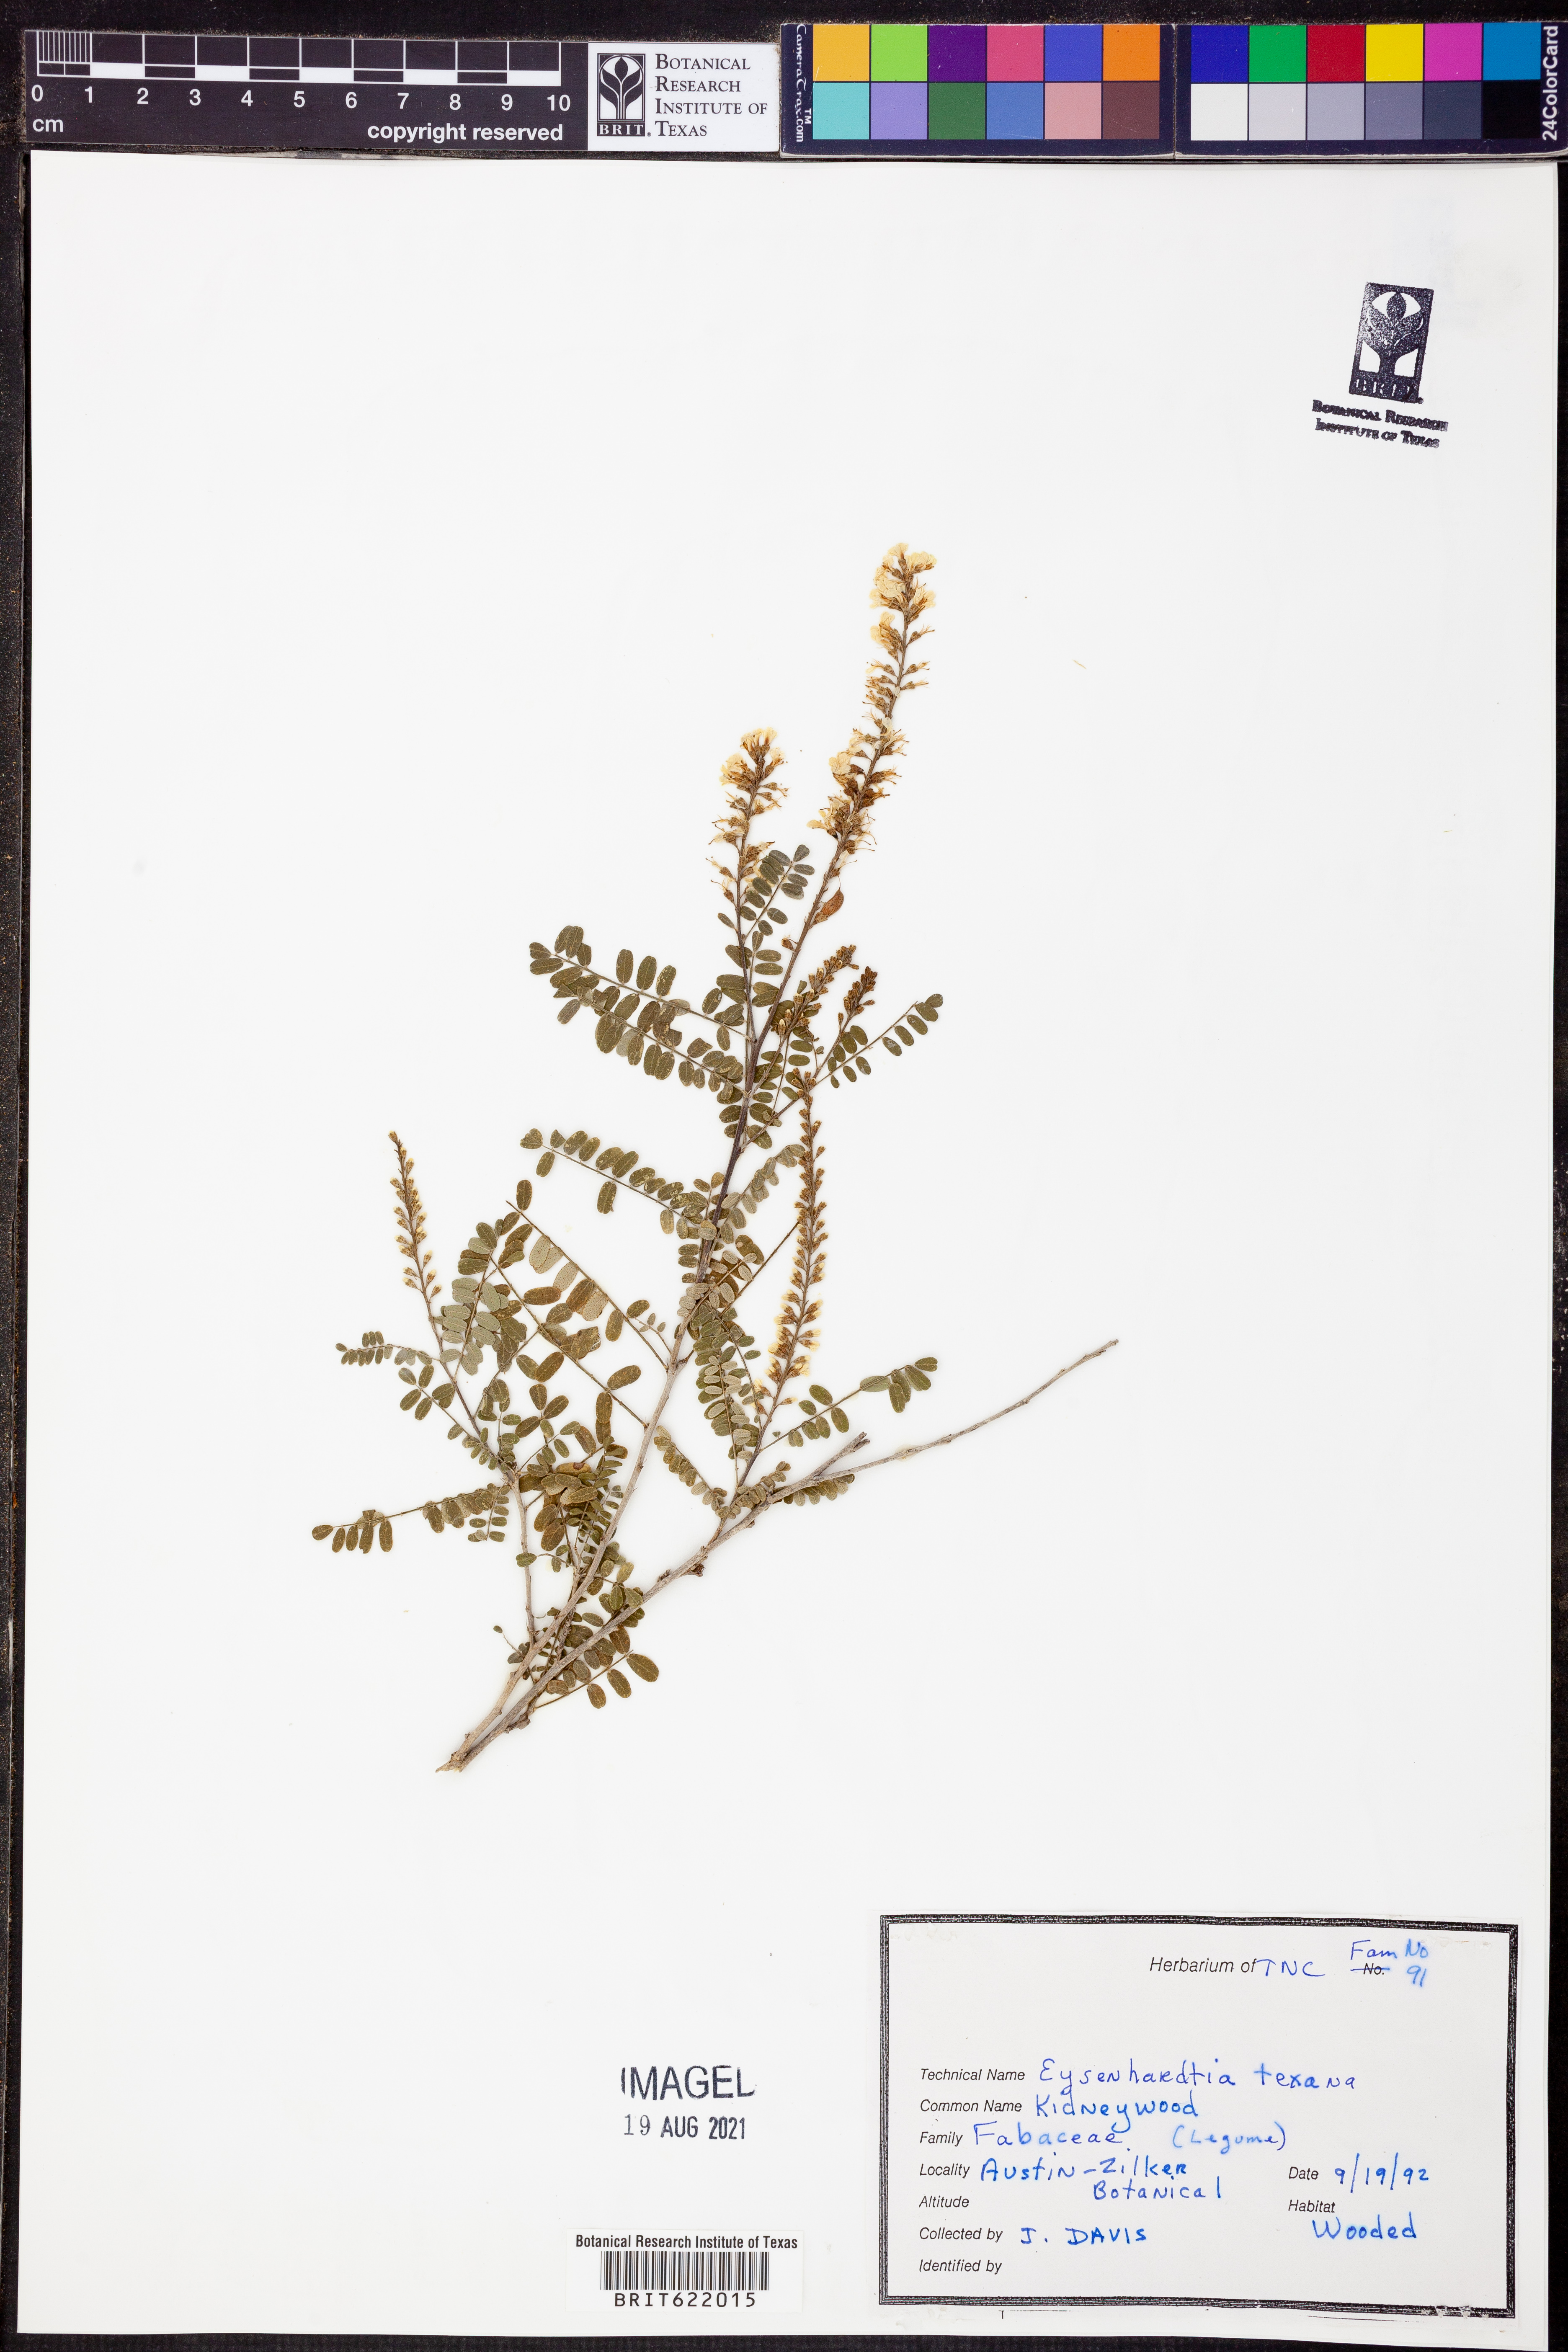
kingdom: Plantae
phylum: Tracheophyta
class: Magnoliopsida
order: Fabales
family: Fabaceae
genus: Eysenhardtia
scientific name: Eysenhardtia texana
